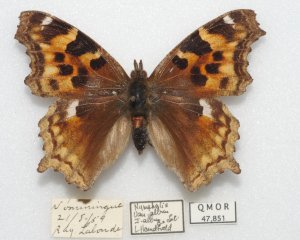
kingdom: Animalia
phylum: Arthropoda
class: Insecta
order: Lepidoptera
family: Nymphalidae
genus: Polygonia
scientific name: Polygonia vaualbum
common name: Compton Tortoiseshell
